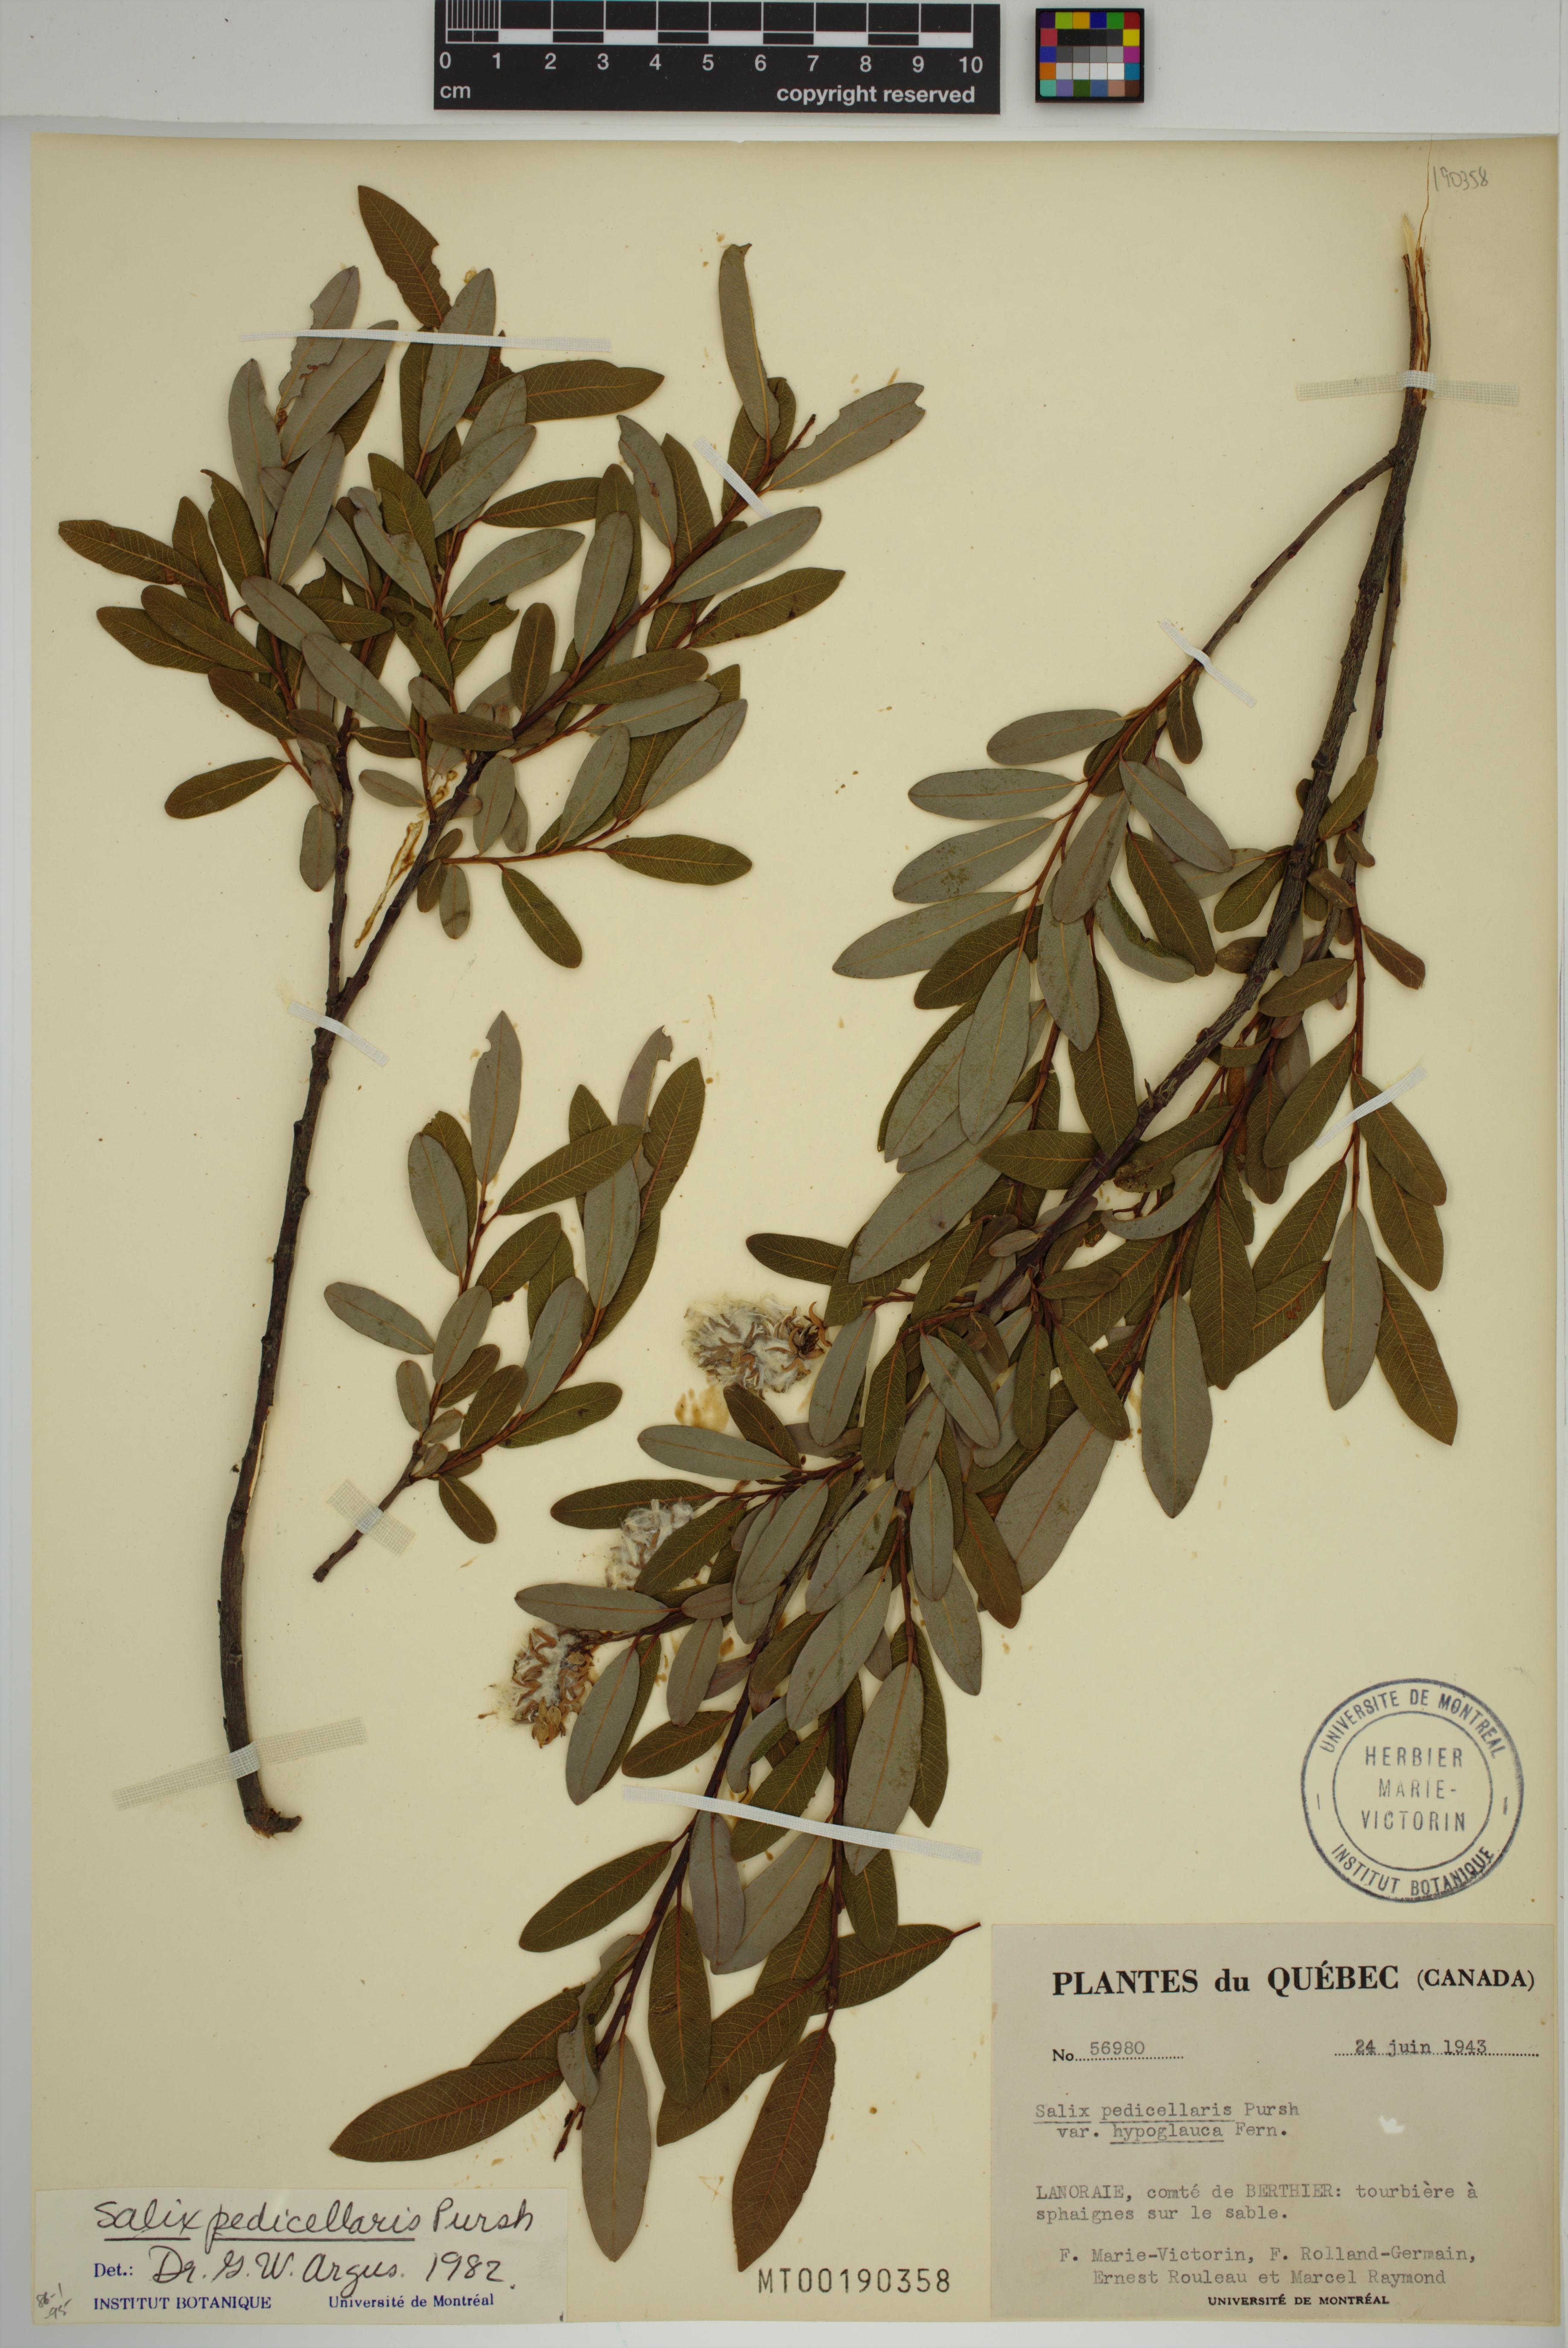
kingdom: Plantae
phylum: Tracheophyta
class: Magnoliopsida
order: Malpighiales
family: Salicaceae
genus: Salix
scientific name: Salix pedicellaris
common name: Bog willow
